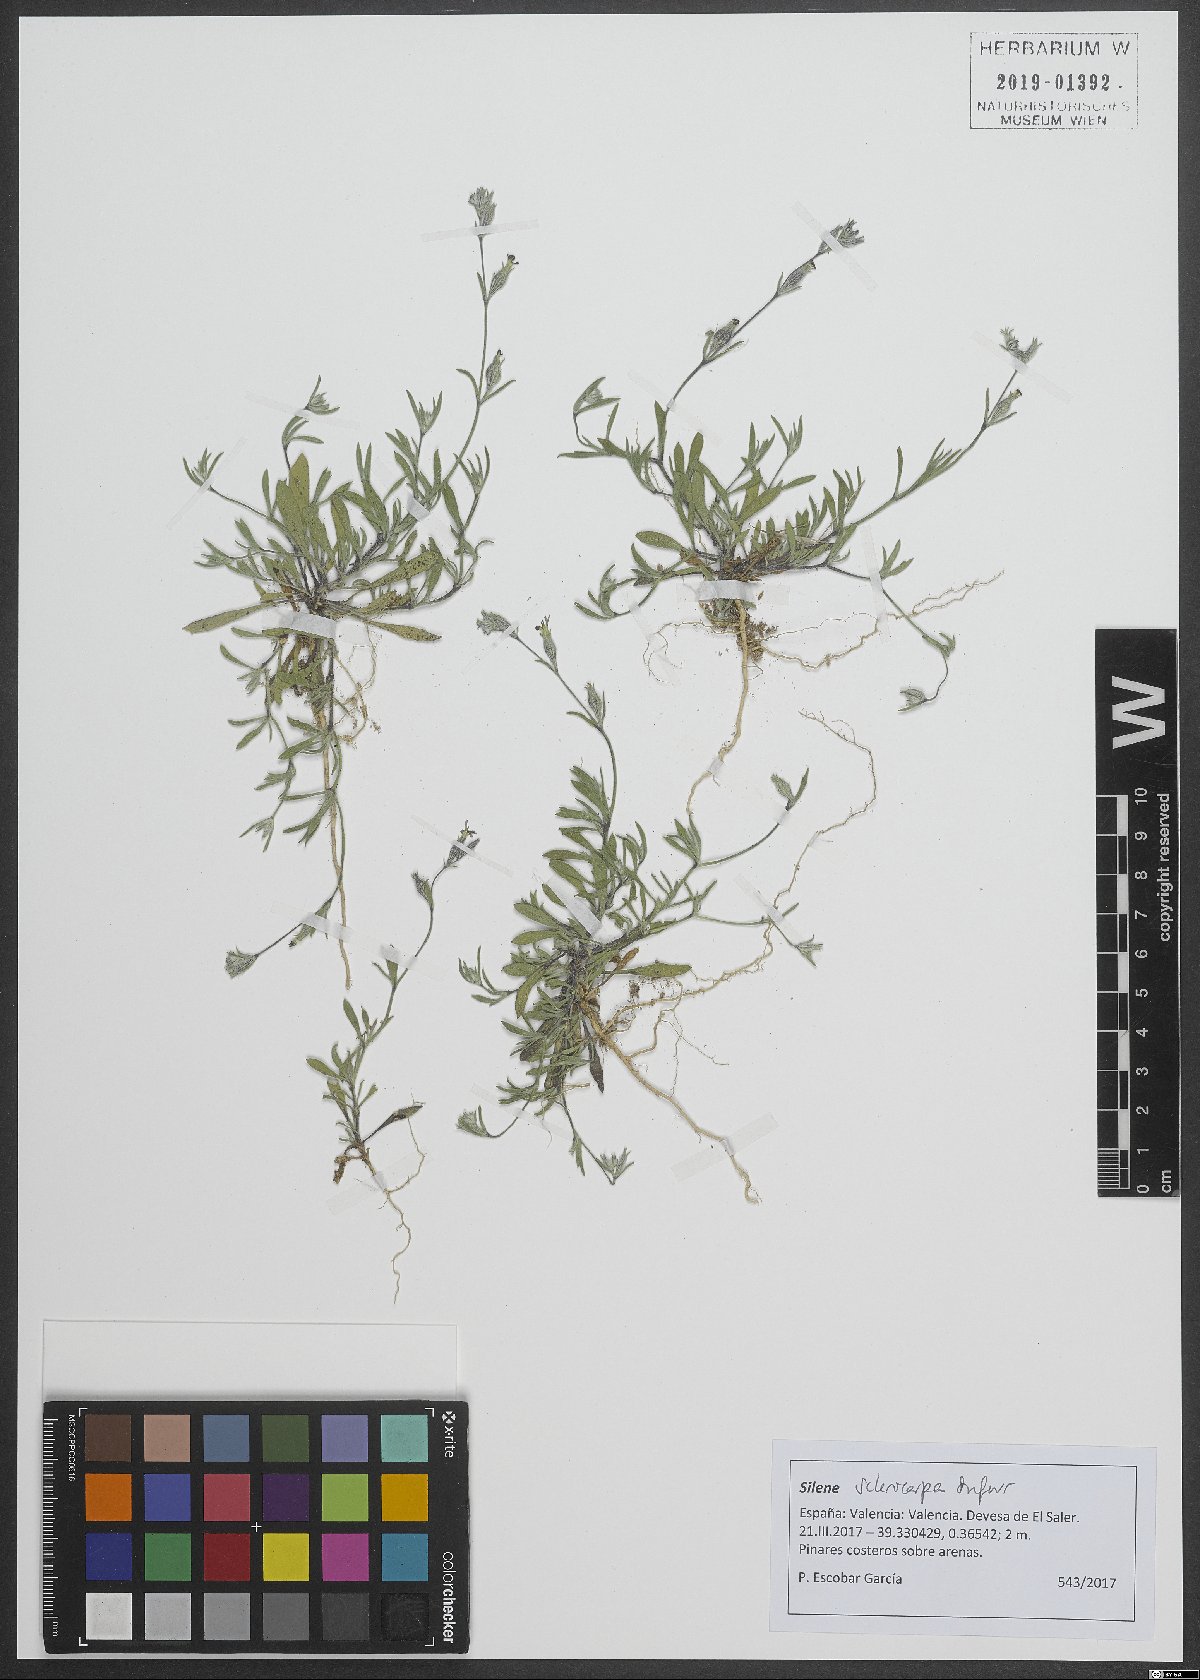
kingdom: Plantae
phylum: Tracheophyta
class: Magnoliopsida
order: Caryophyllales
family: Caryophyllaceae
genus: Silene
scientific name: Silene sclerocarpa
